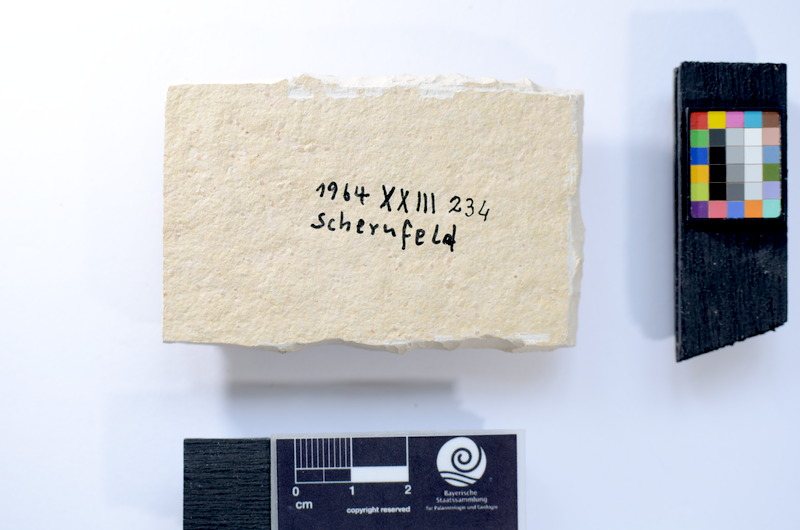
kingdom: Animalia
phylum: Chordata
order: Salmoniformes
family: Orthogonikleithridae
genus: Leptolepides
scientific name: Leptolepides sprattiformis
